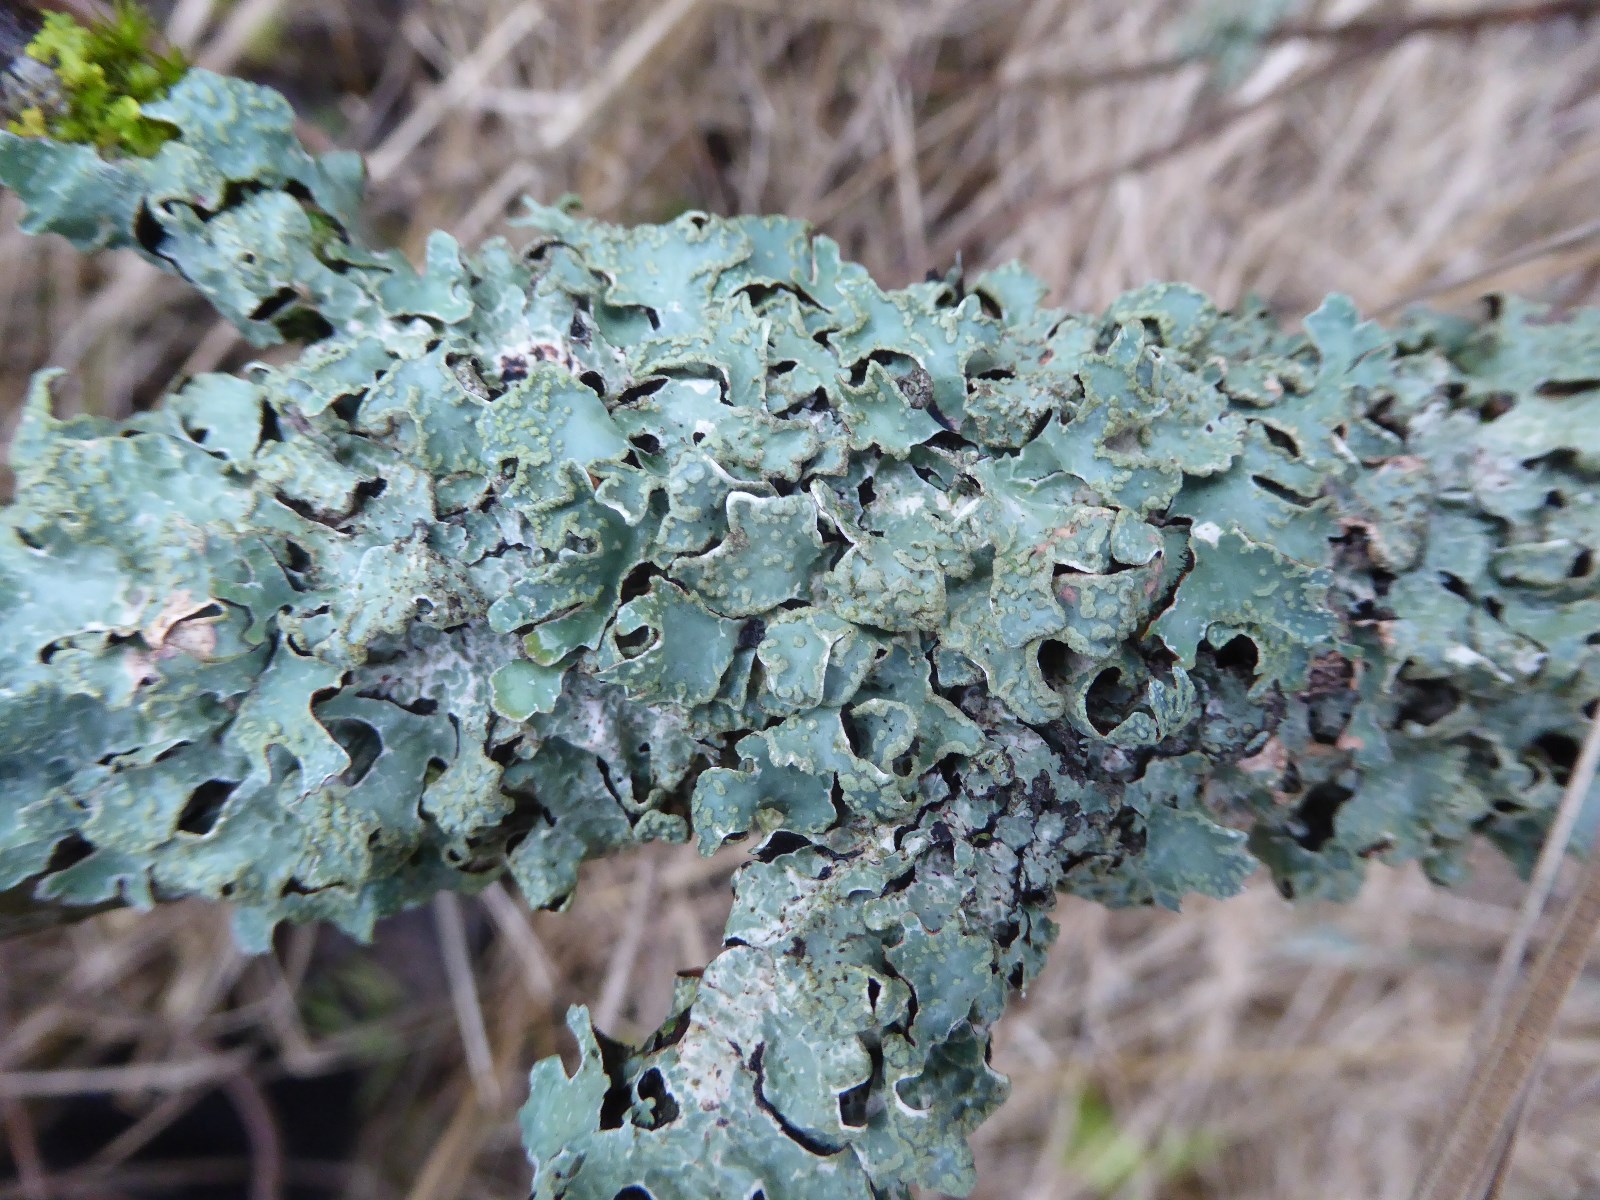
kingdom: Fungi
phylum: Ascomycota
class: Lecanoromycetes
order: Lecanorales
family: Parmeliaceae
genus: Parmelia
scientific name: Parmelia sulcata
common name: rynket skållav
